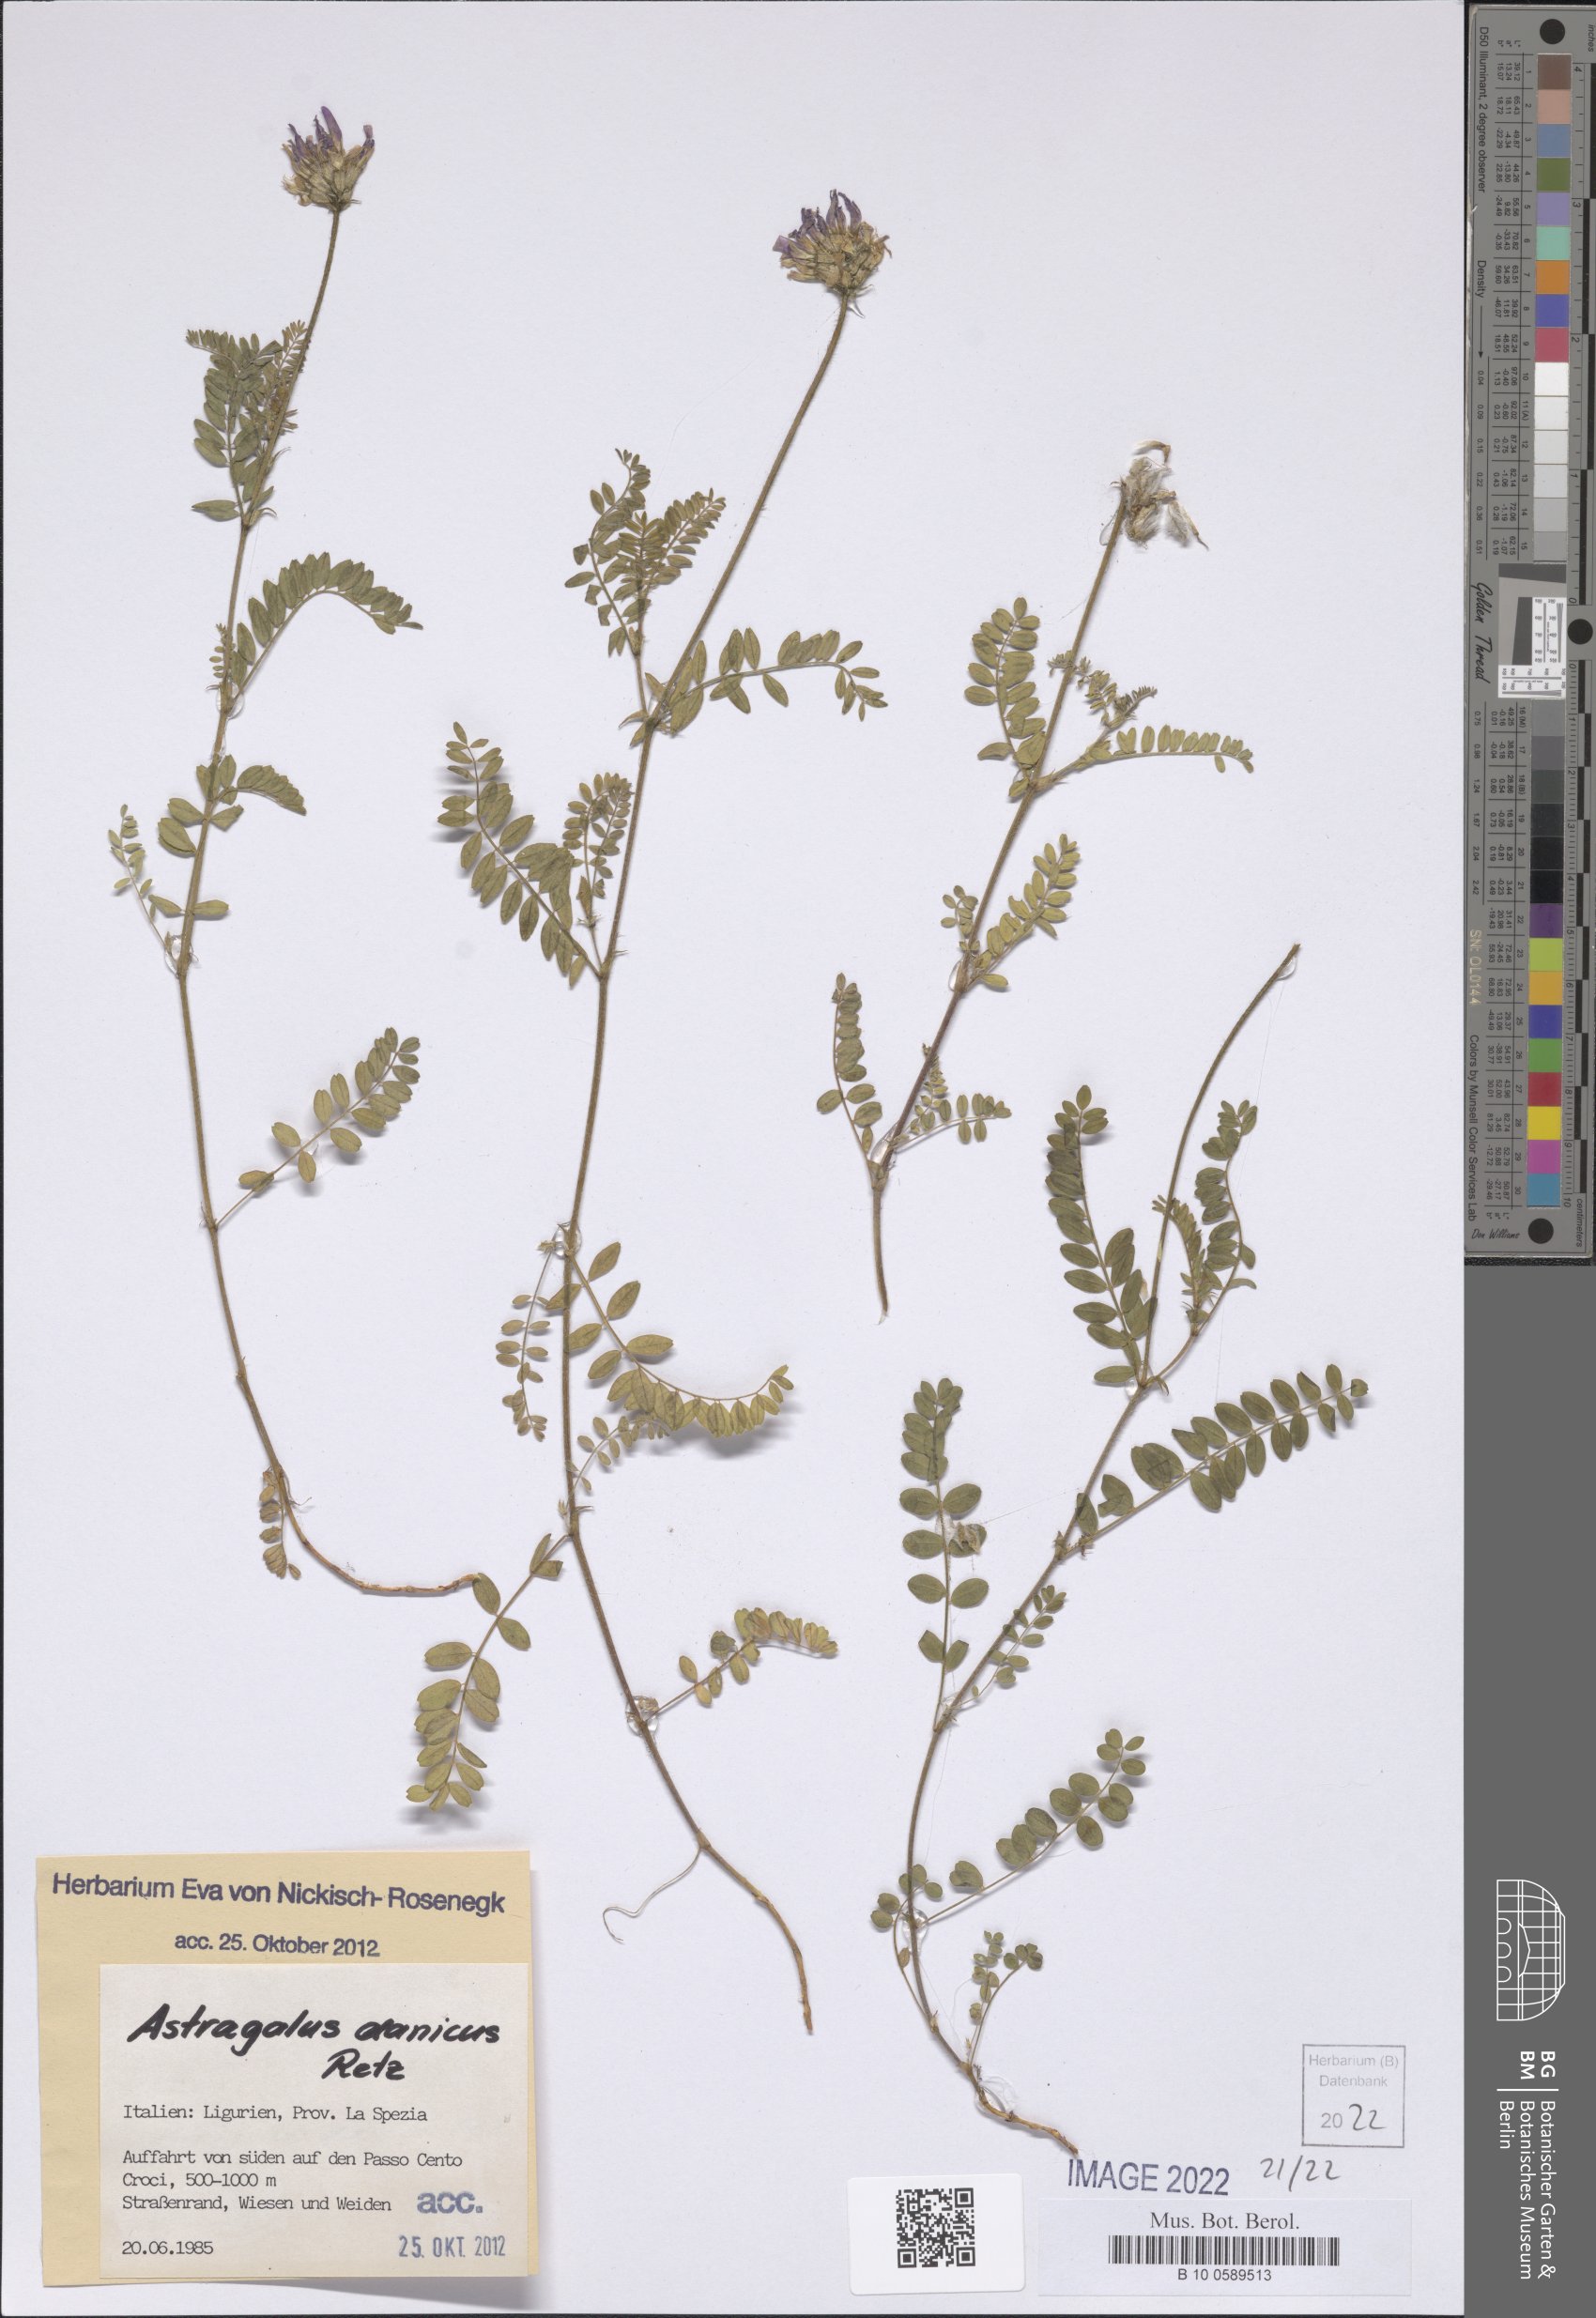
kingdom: Plantae
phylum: Tracheophyta
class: Magnoliopsida
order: Fabales
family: Fabaceae
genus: Astragalus
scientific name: Astragalus danicus
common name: Purple milk-vetch
